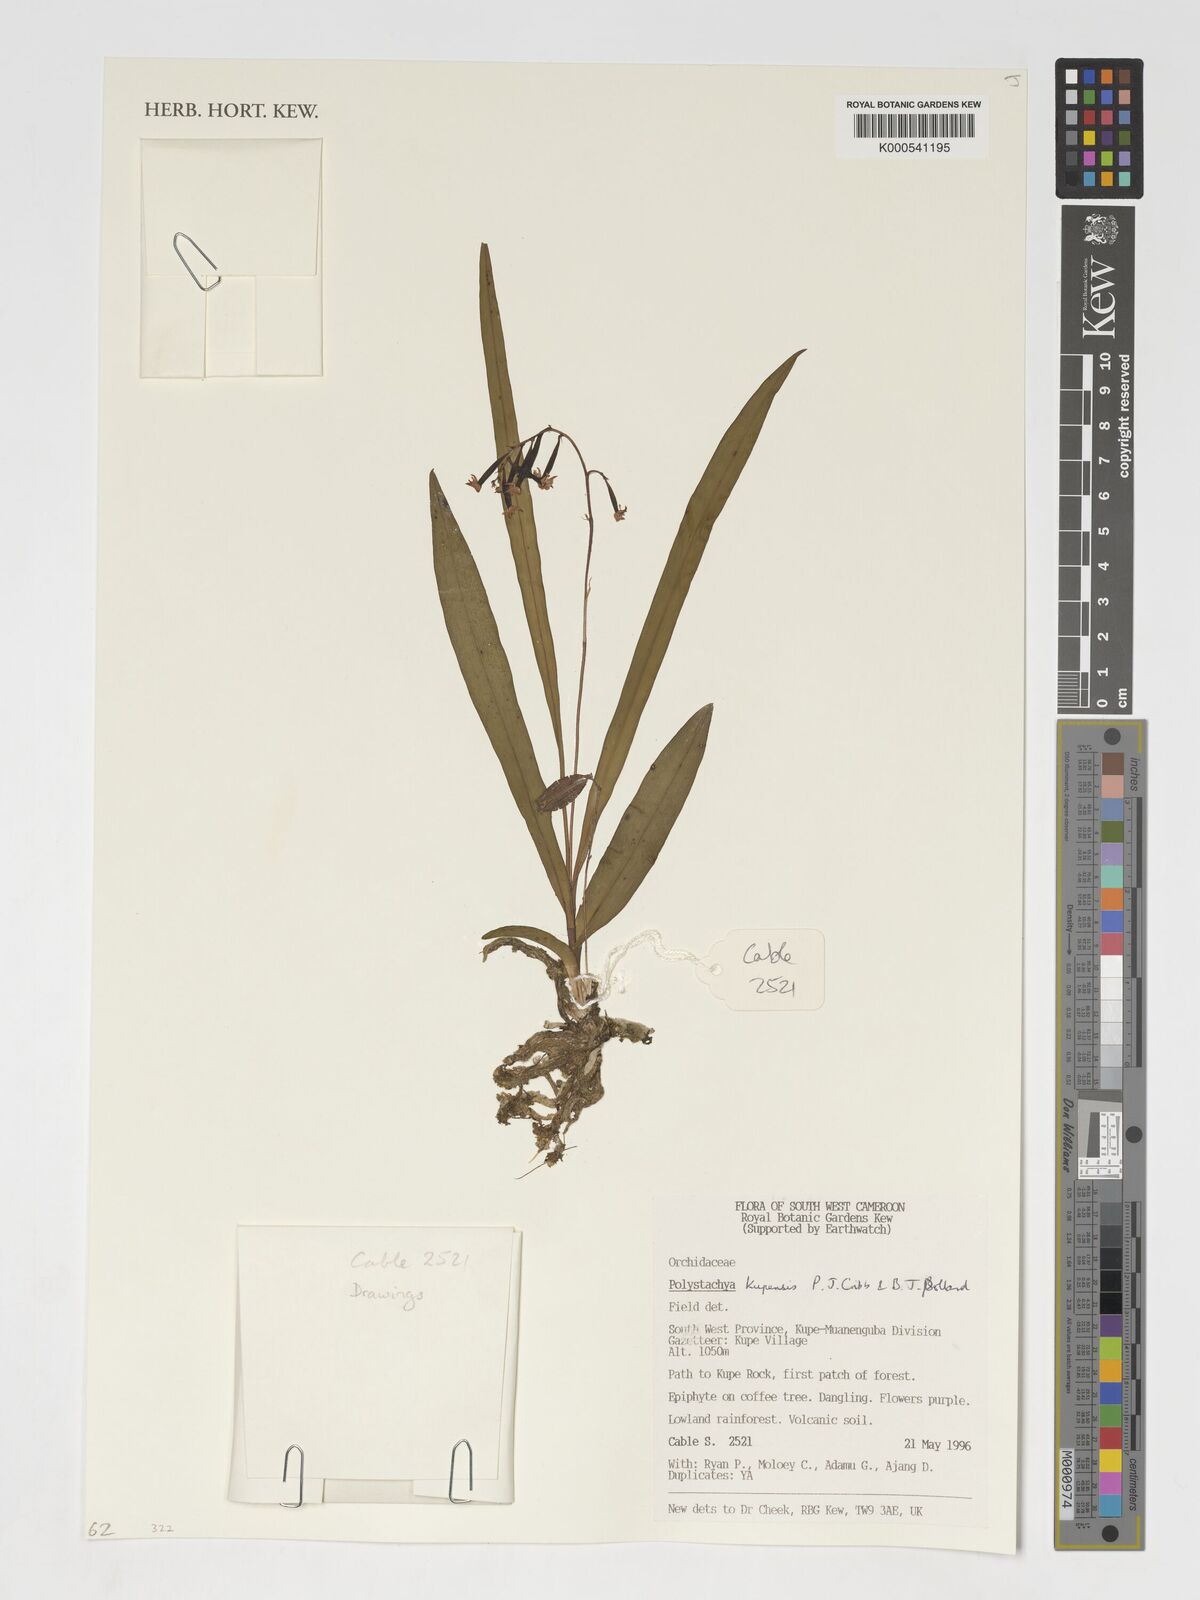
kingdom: Plantae
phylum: Tracheophyta
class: Liliopsida
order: Asparagales
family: Orchidaceae
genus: Polystachya
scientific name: Polystachya kupensis
